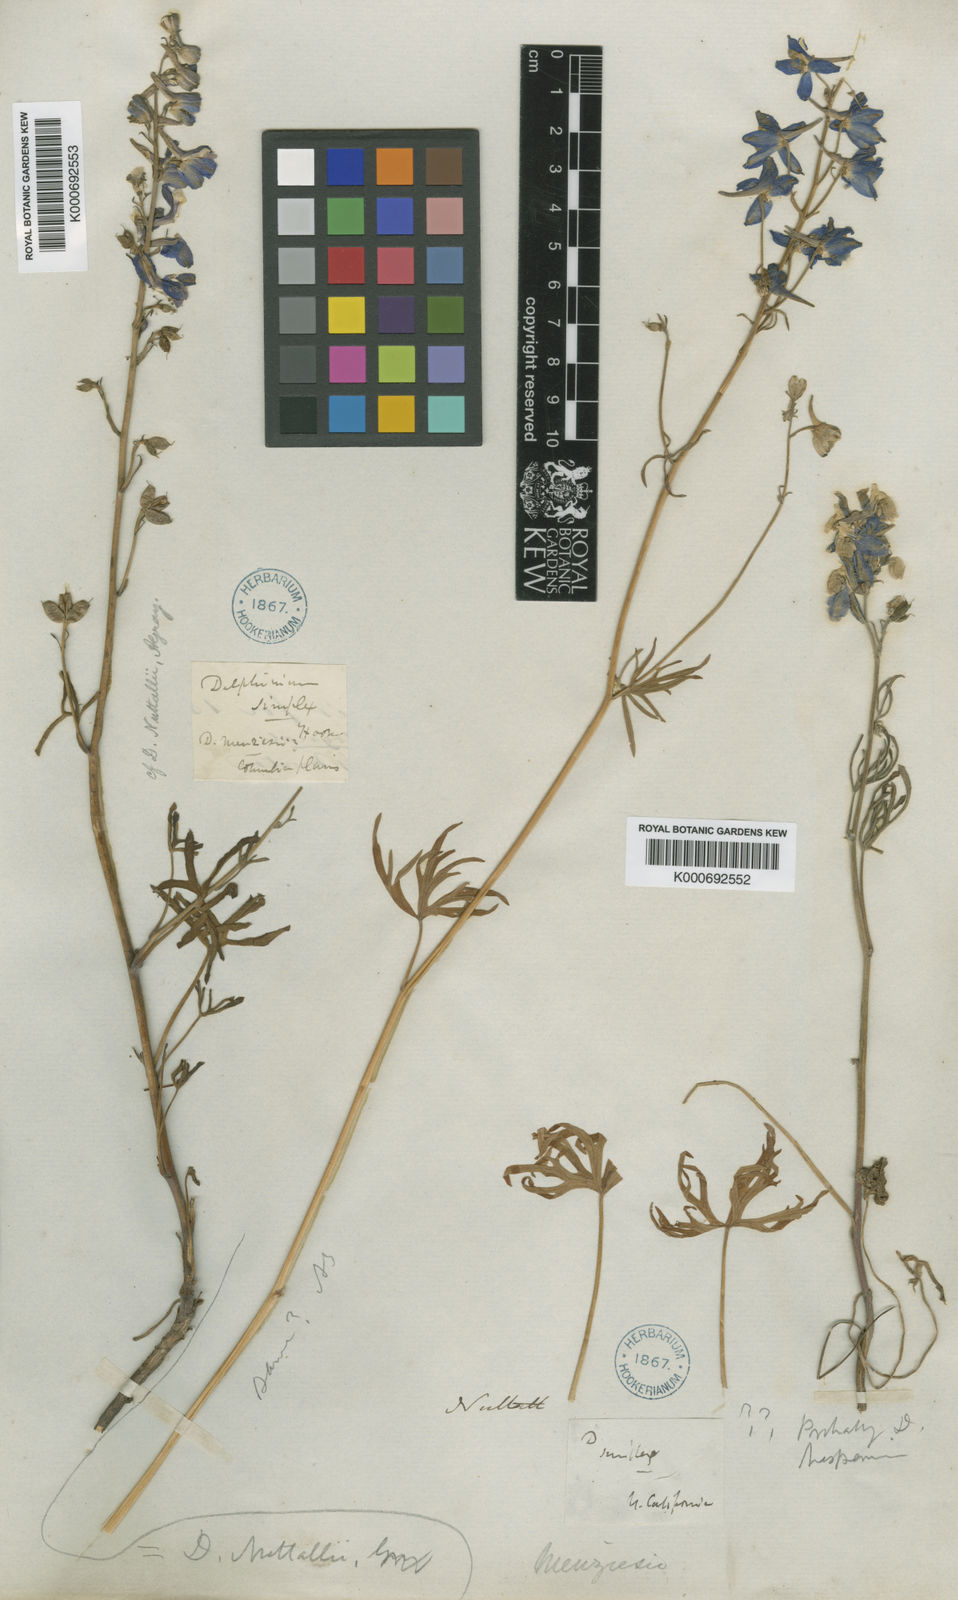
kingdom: Plantae
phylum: Tracheophyta
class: Magnoliopsida
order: Ranunculales
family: Ranunculaceae
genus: Delphinium
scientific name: Delphinium
